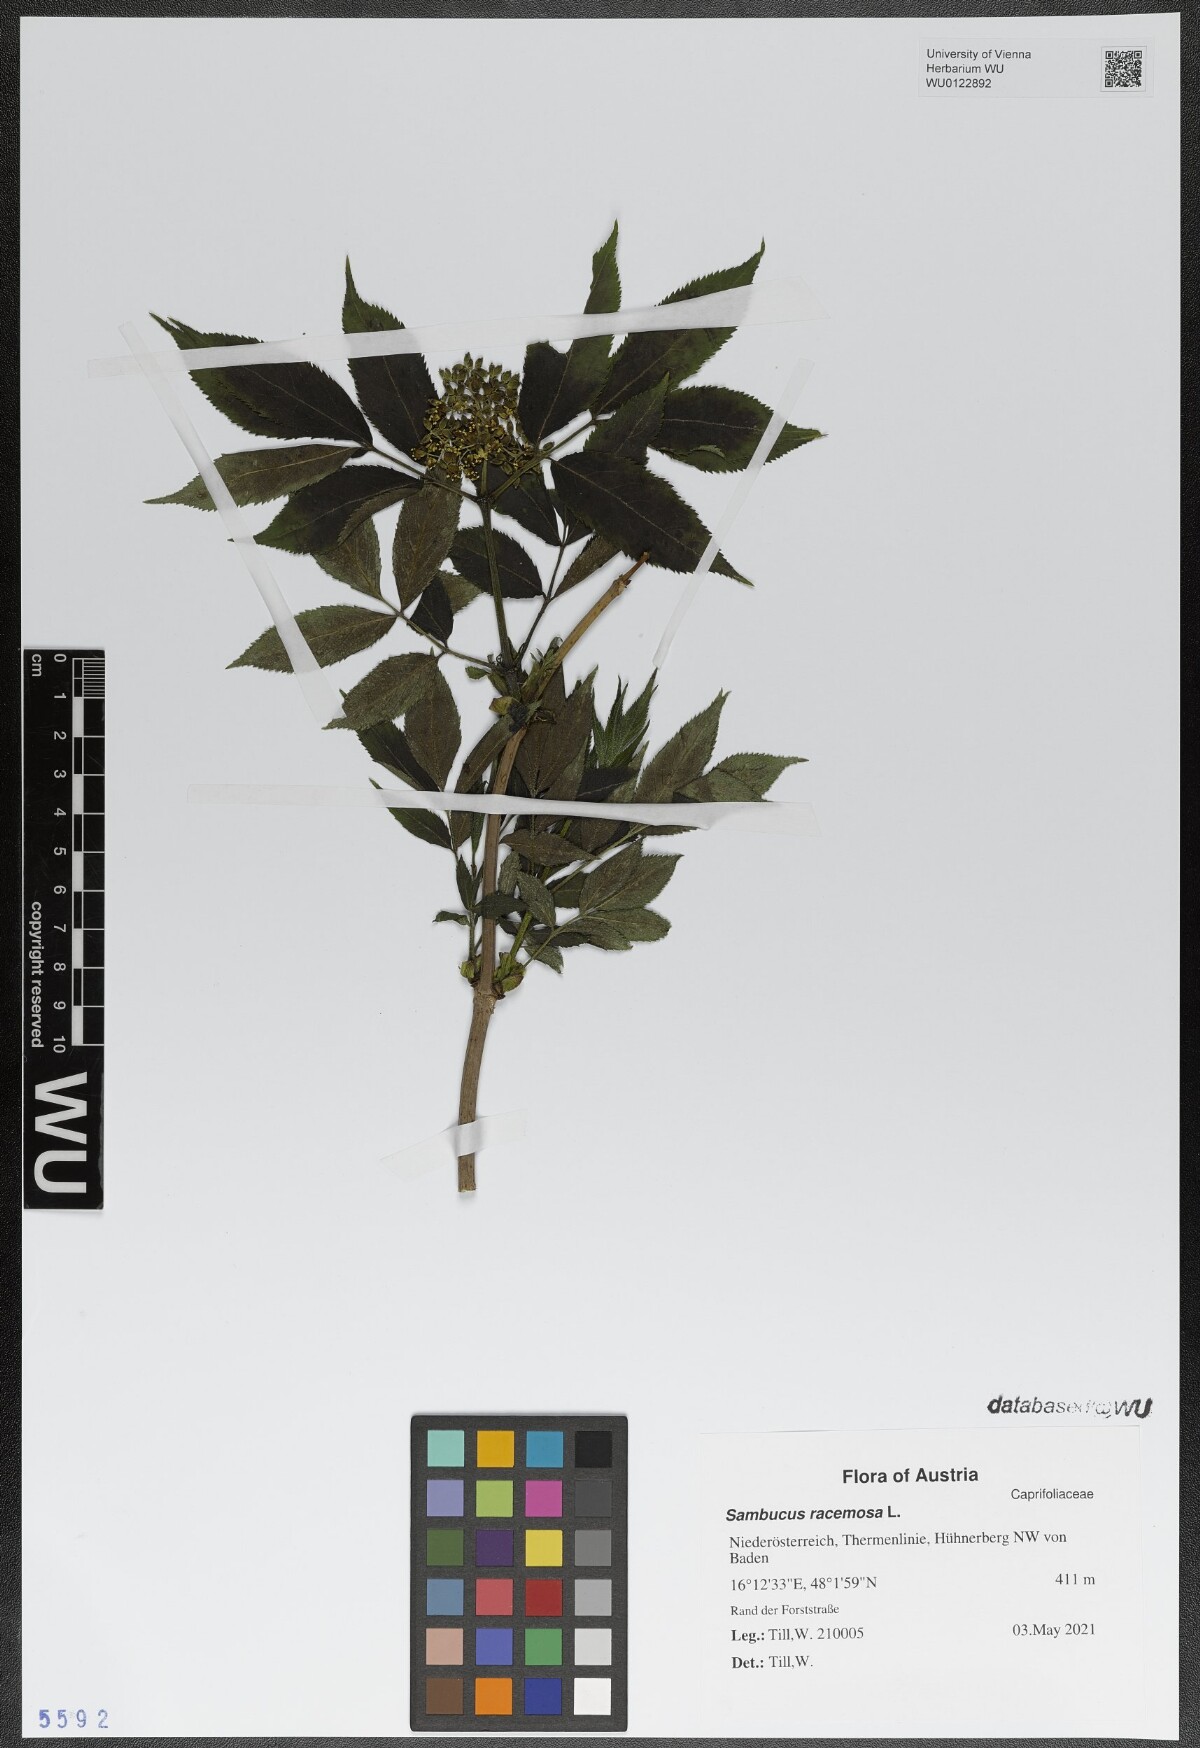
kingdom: Plantae
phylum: Tracheophyta
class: Magnoliopsida
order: Dipsacales
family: Viburnaceae
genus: Sambucus
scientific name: Sambucus racemosa
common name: Red-berried elder
